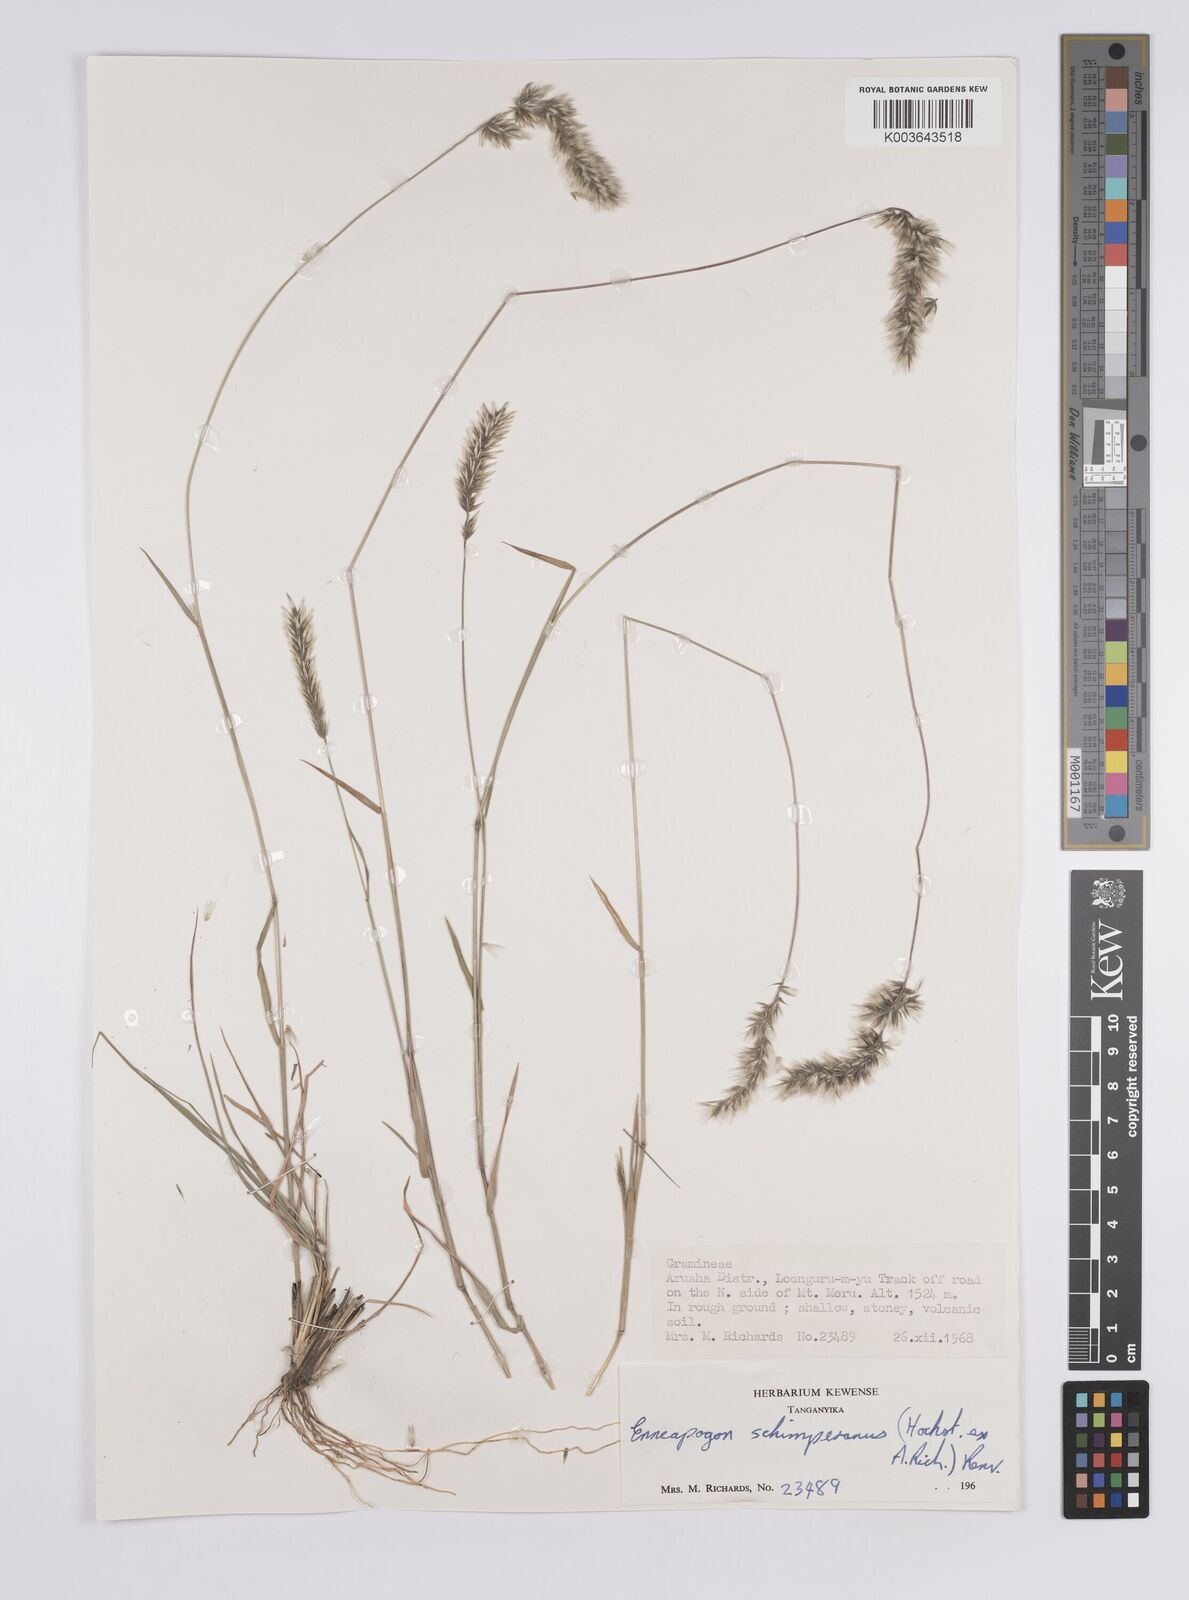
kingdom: Plantae
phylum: Tracheophyta
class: Liliopsida
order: Poales
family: Poaceae
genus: Enneapogon
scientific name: Enneapogon persicus
